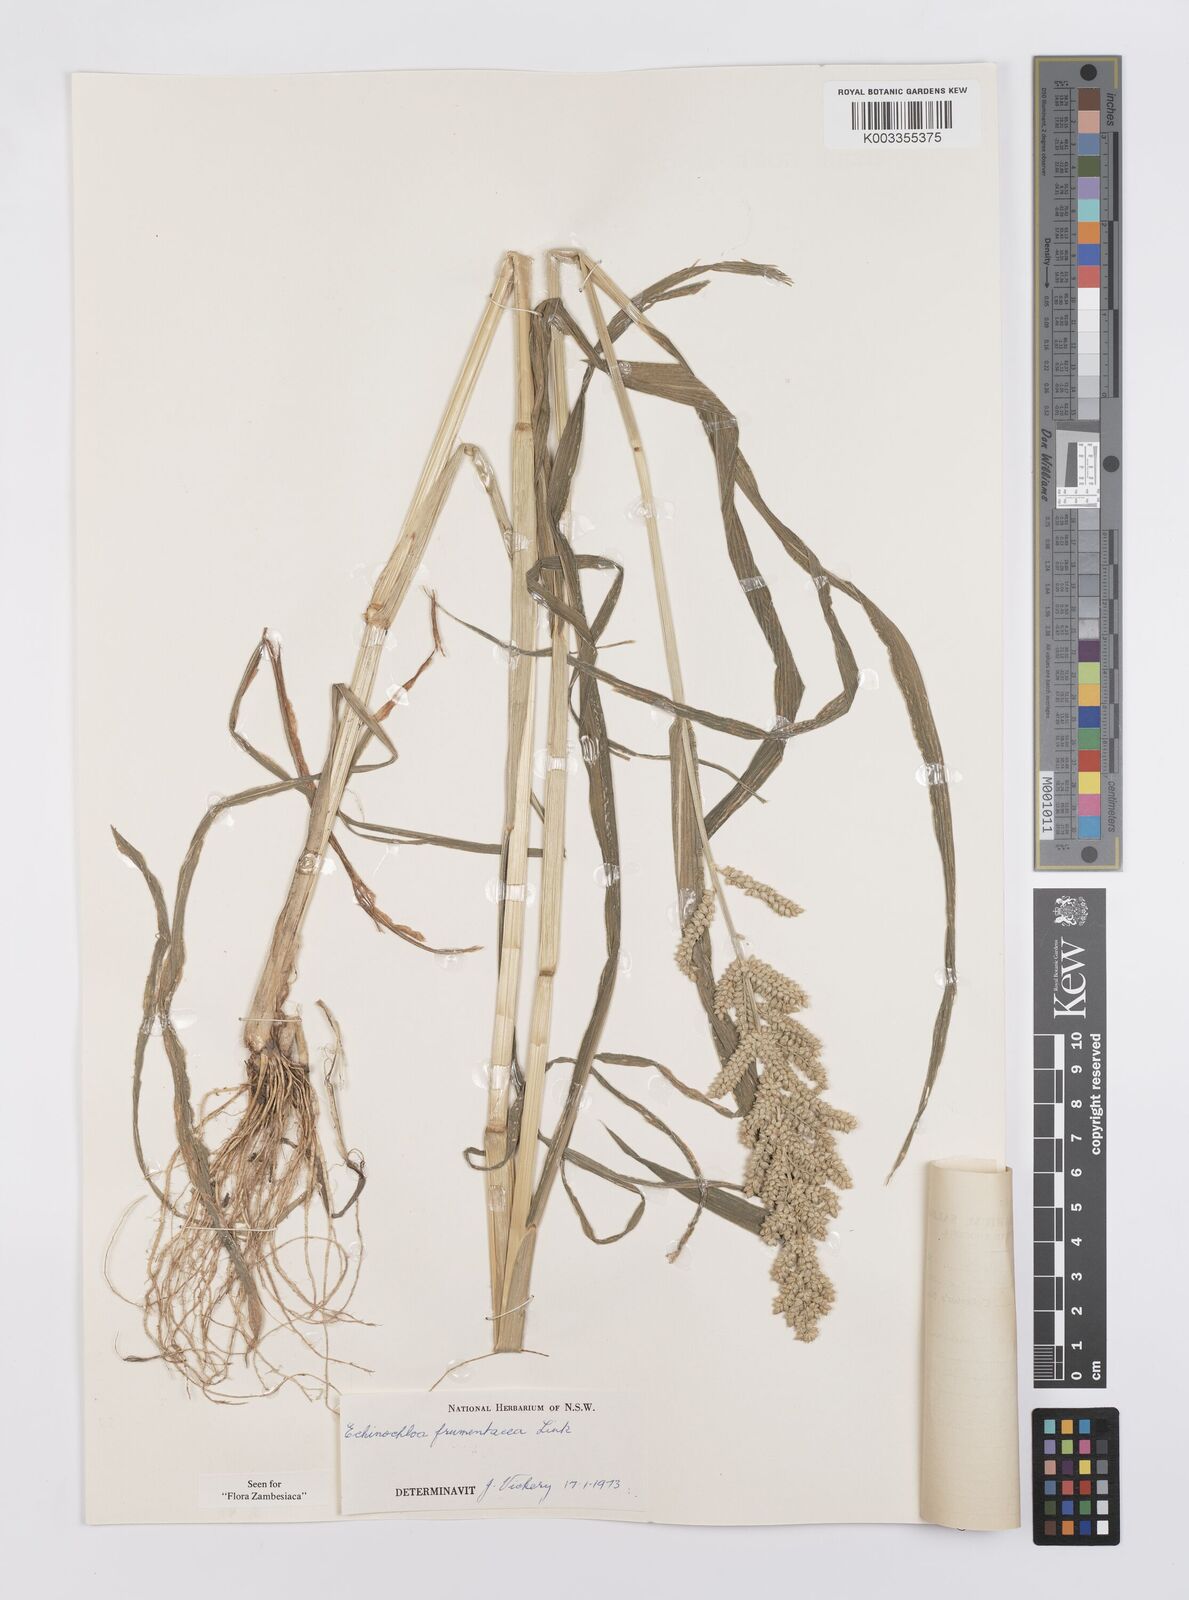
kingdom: Plantae
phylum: Tracheophyta
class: Liliopsida
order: Poales
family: Poaceae
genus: Echinochloa
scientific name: Echinochloa frumentacea
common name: Billion-dollar grass
